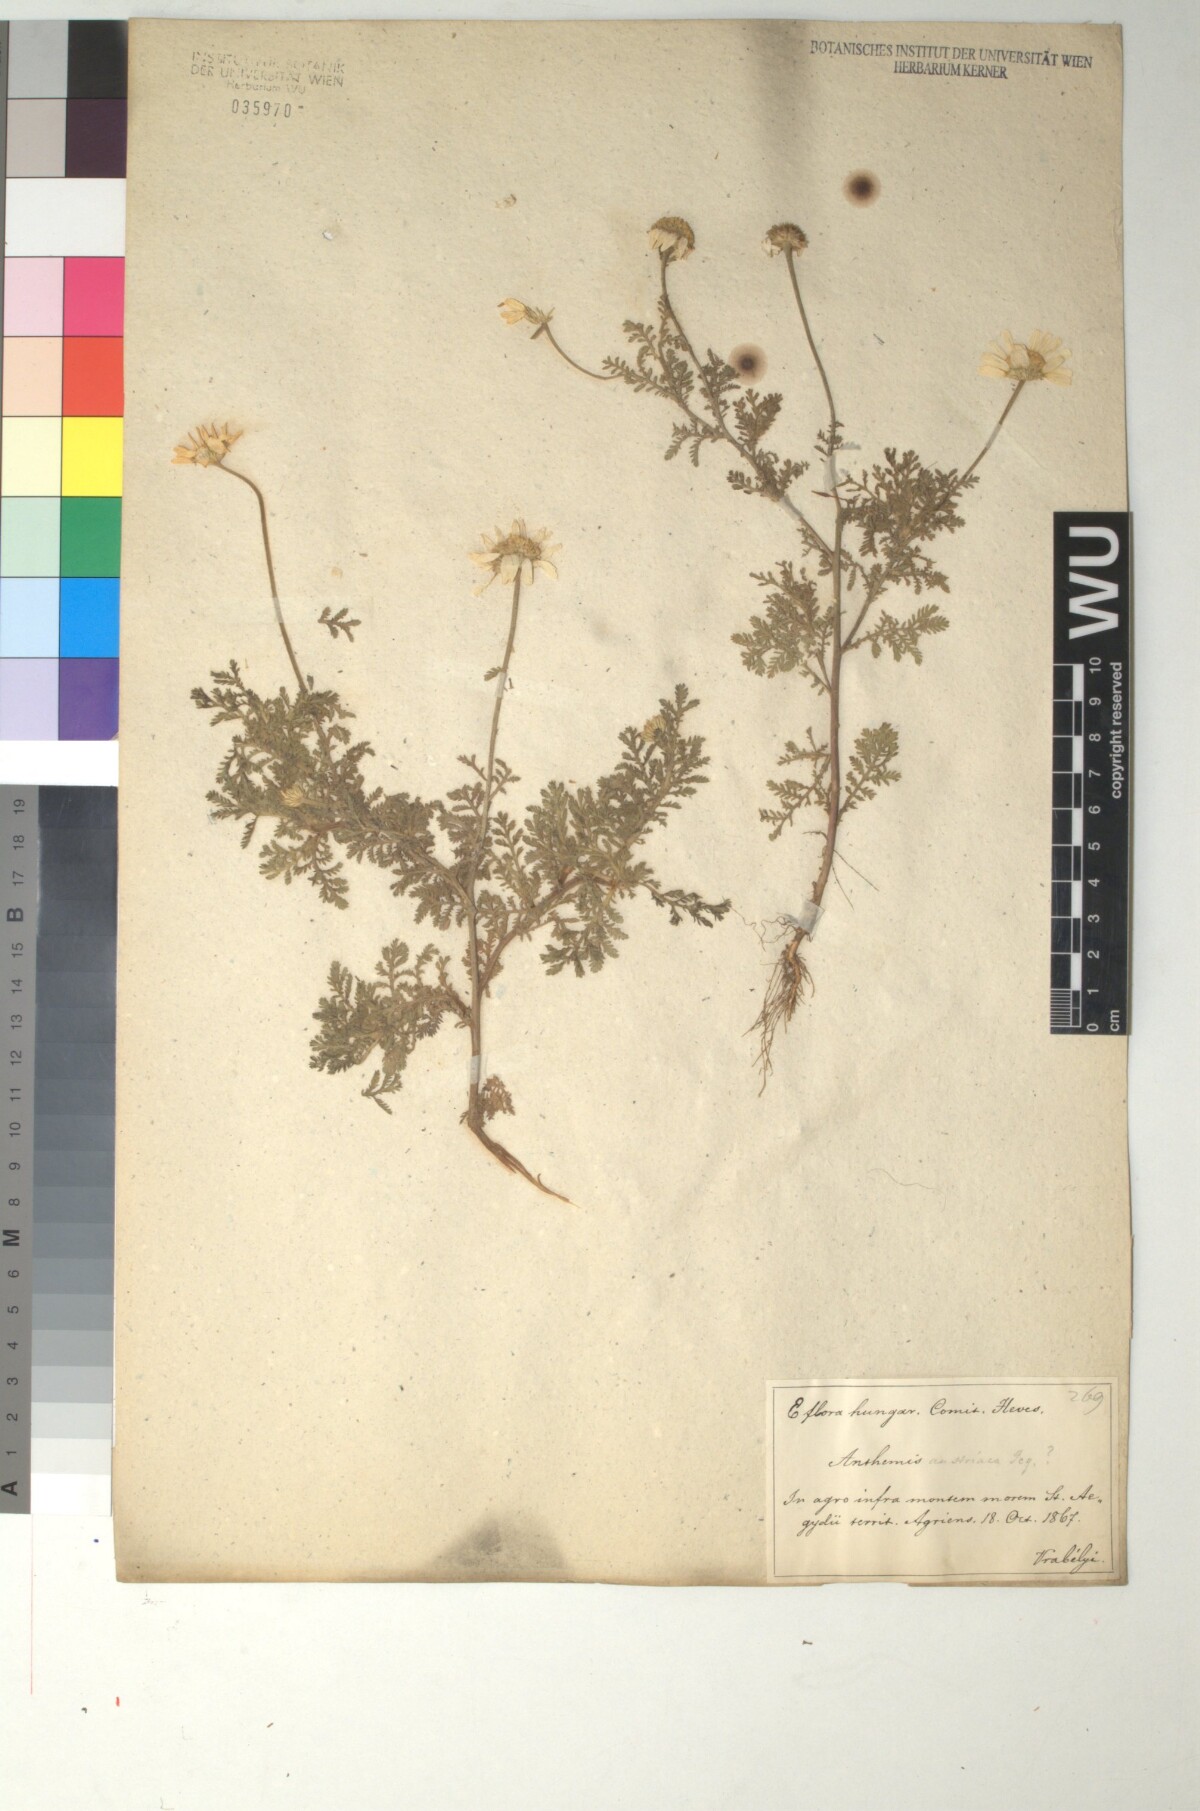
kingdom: Plantae
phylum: Tracheophyta
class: Magnoliopsida
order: Asterales
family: Asteraceae
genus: Cota
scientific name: Cota austriaca
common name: Austrian chamomile
